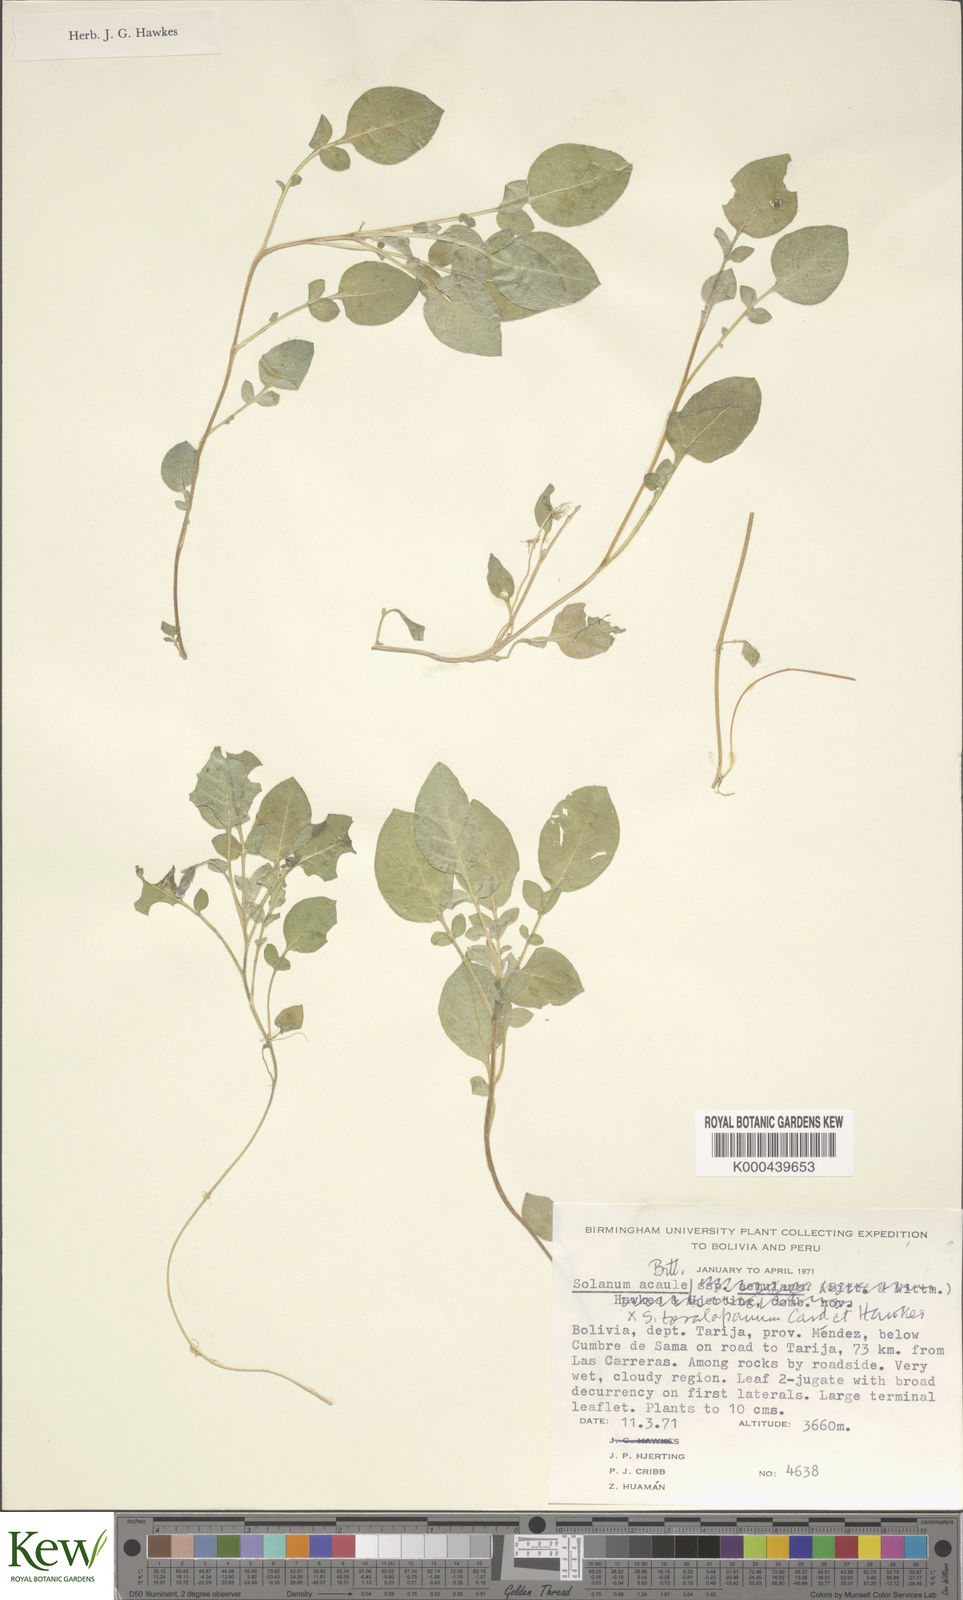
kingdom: Plantae
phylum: Tracheophyta
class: Magnoliopsida
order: Solanales
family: Solanaceae
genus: Solanum
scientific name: Solanum acaule
